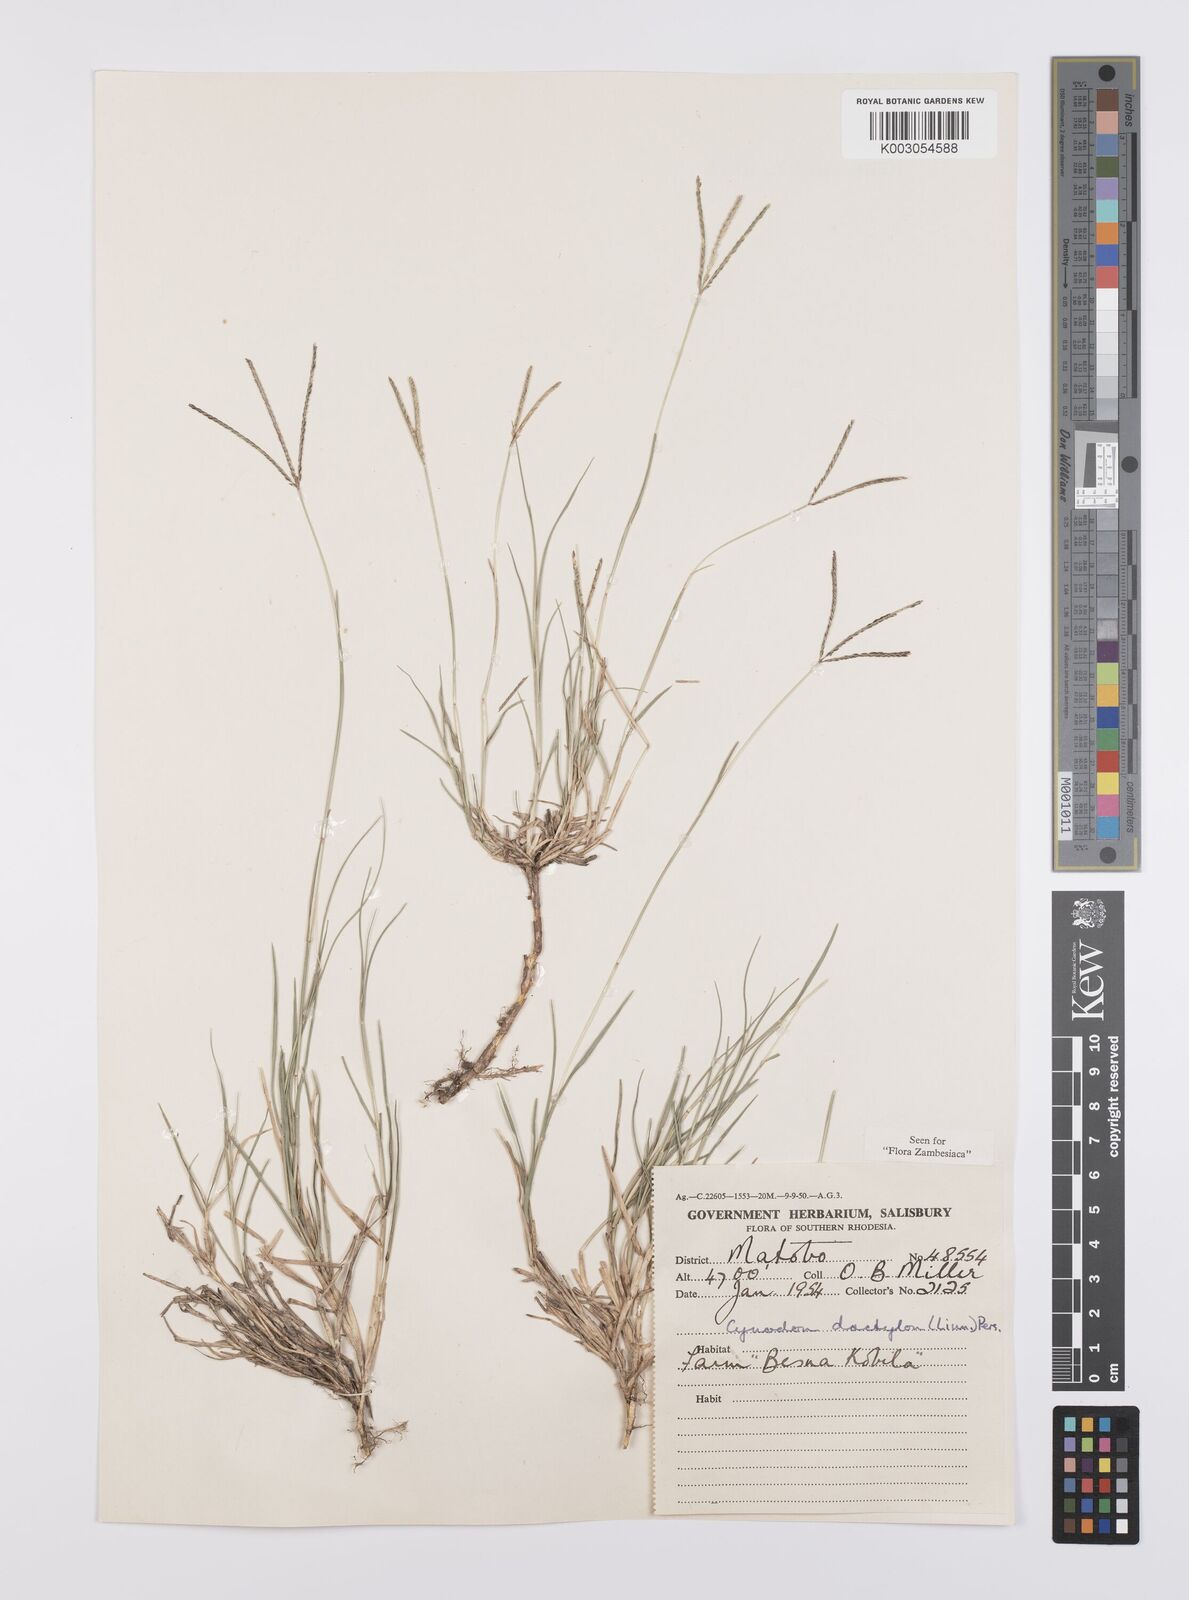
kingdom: Plantae
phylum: Tracheophyta
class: Liliopsida
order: Poales
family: Poaceae
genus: Cynodon
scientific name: Cynodon dactylon
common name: Bermuda grass
